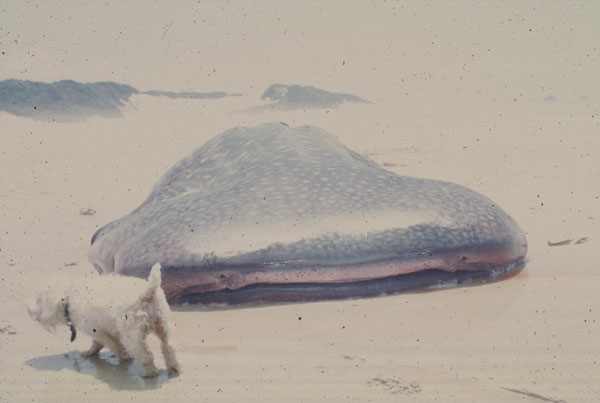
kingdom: Animalia
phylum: Chordata
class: Elasmobranchii
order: Orectolobiformes
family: Rhincodontidae
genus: Rhincodon
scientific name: Rhincodon typus
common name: Whale shark
